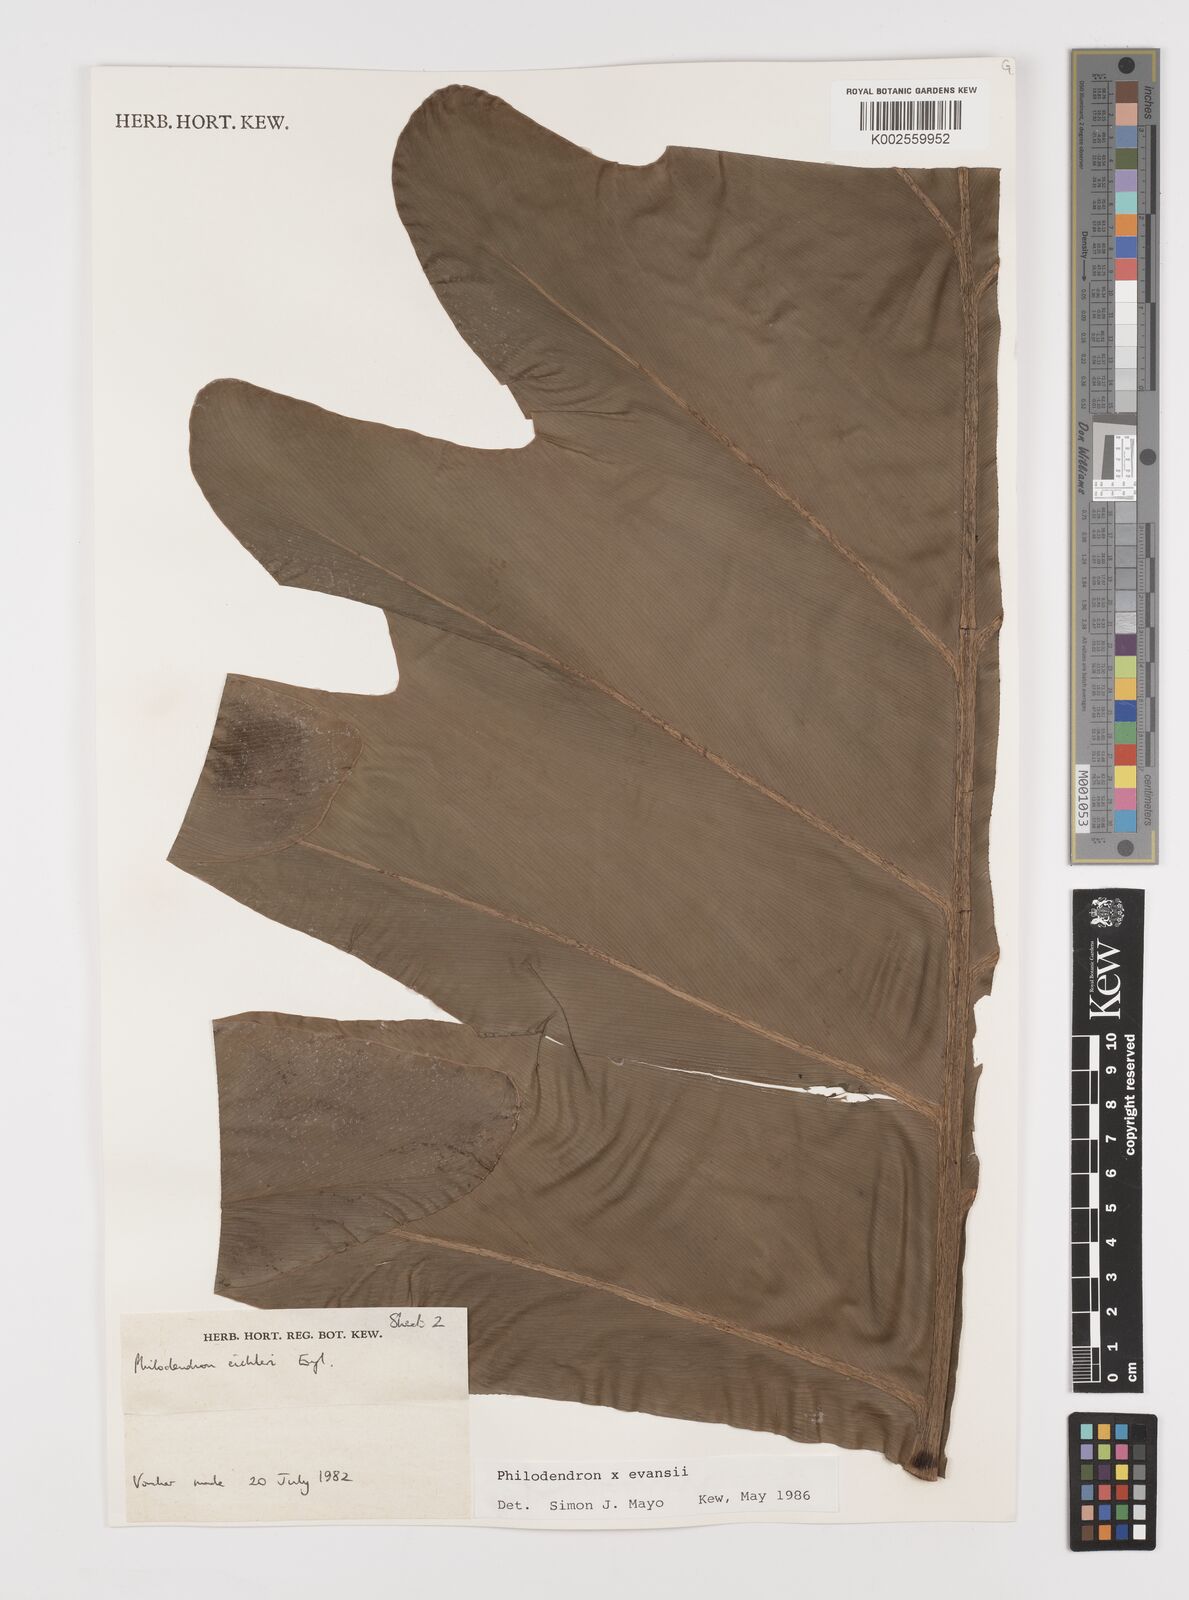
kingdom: Plantae
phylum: Tracheophyta
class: Liliopsida
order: Alismatales
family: Araceae
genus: Philodendron
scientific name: Philodendron
